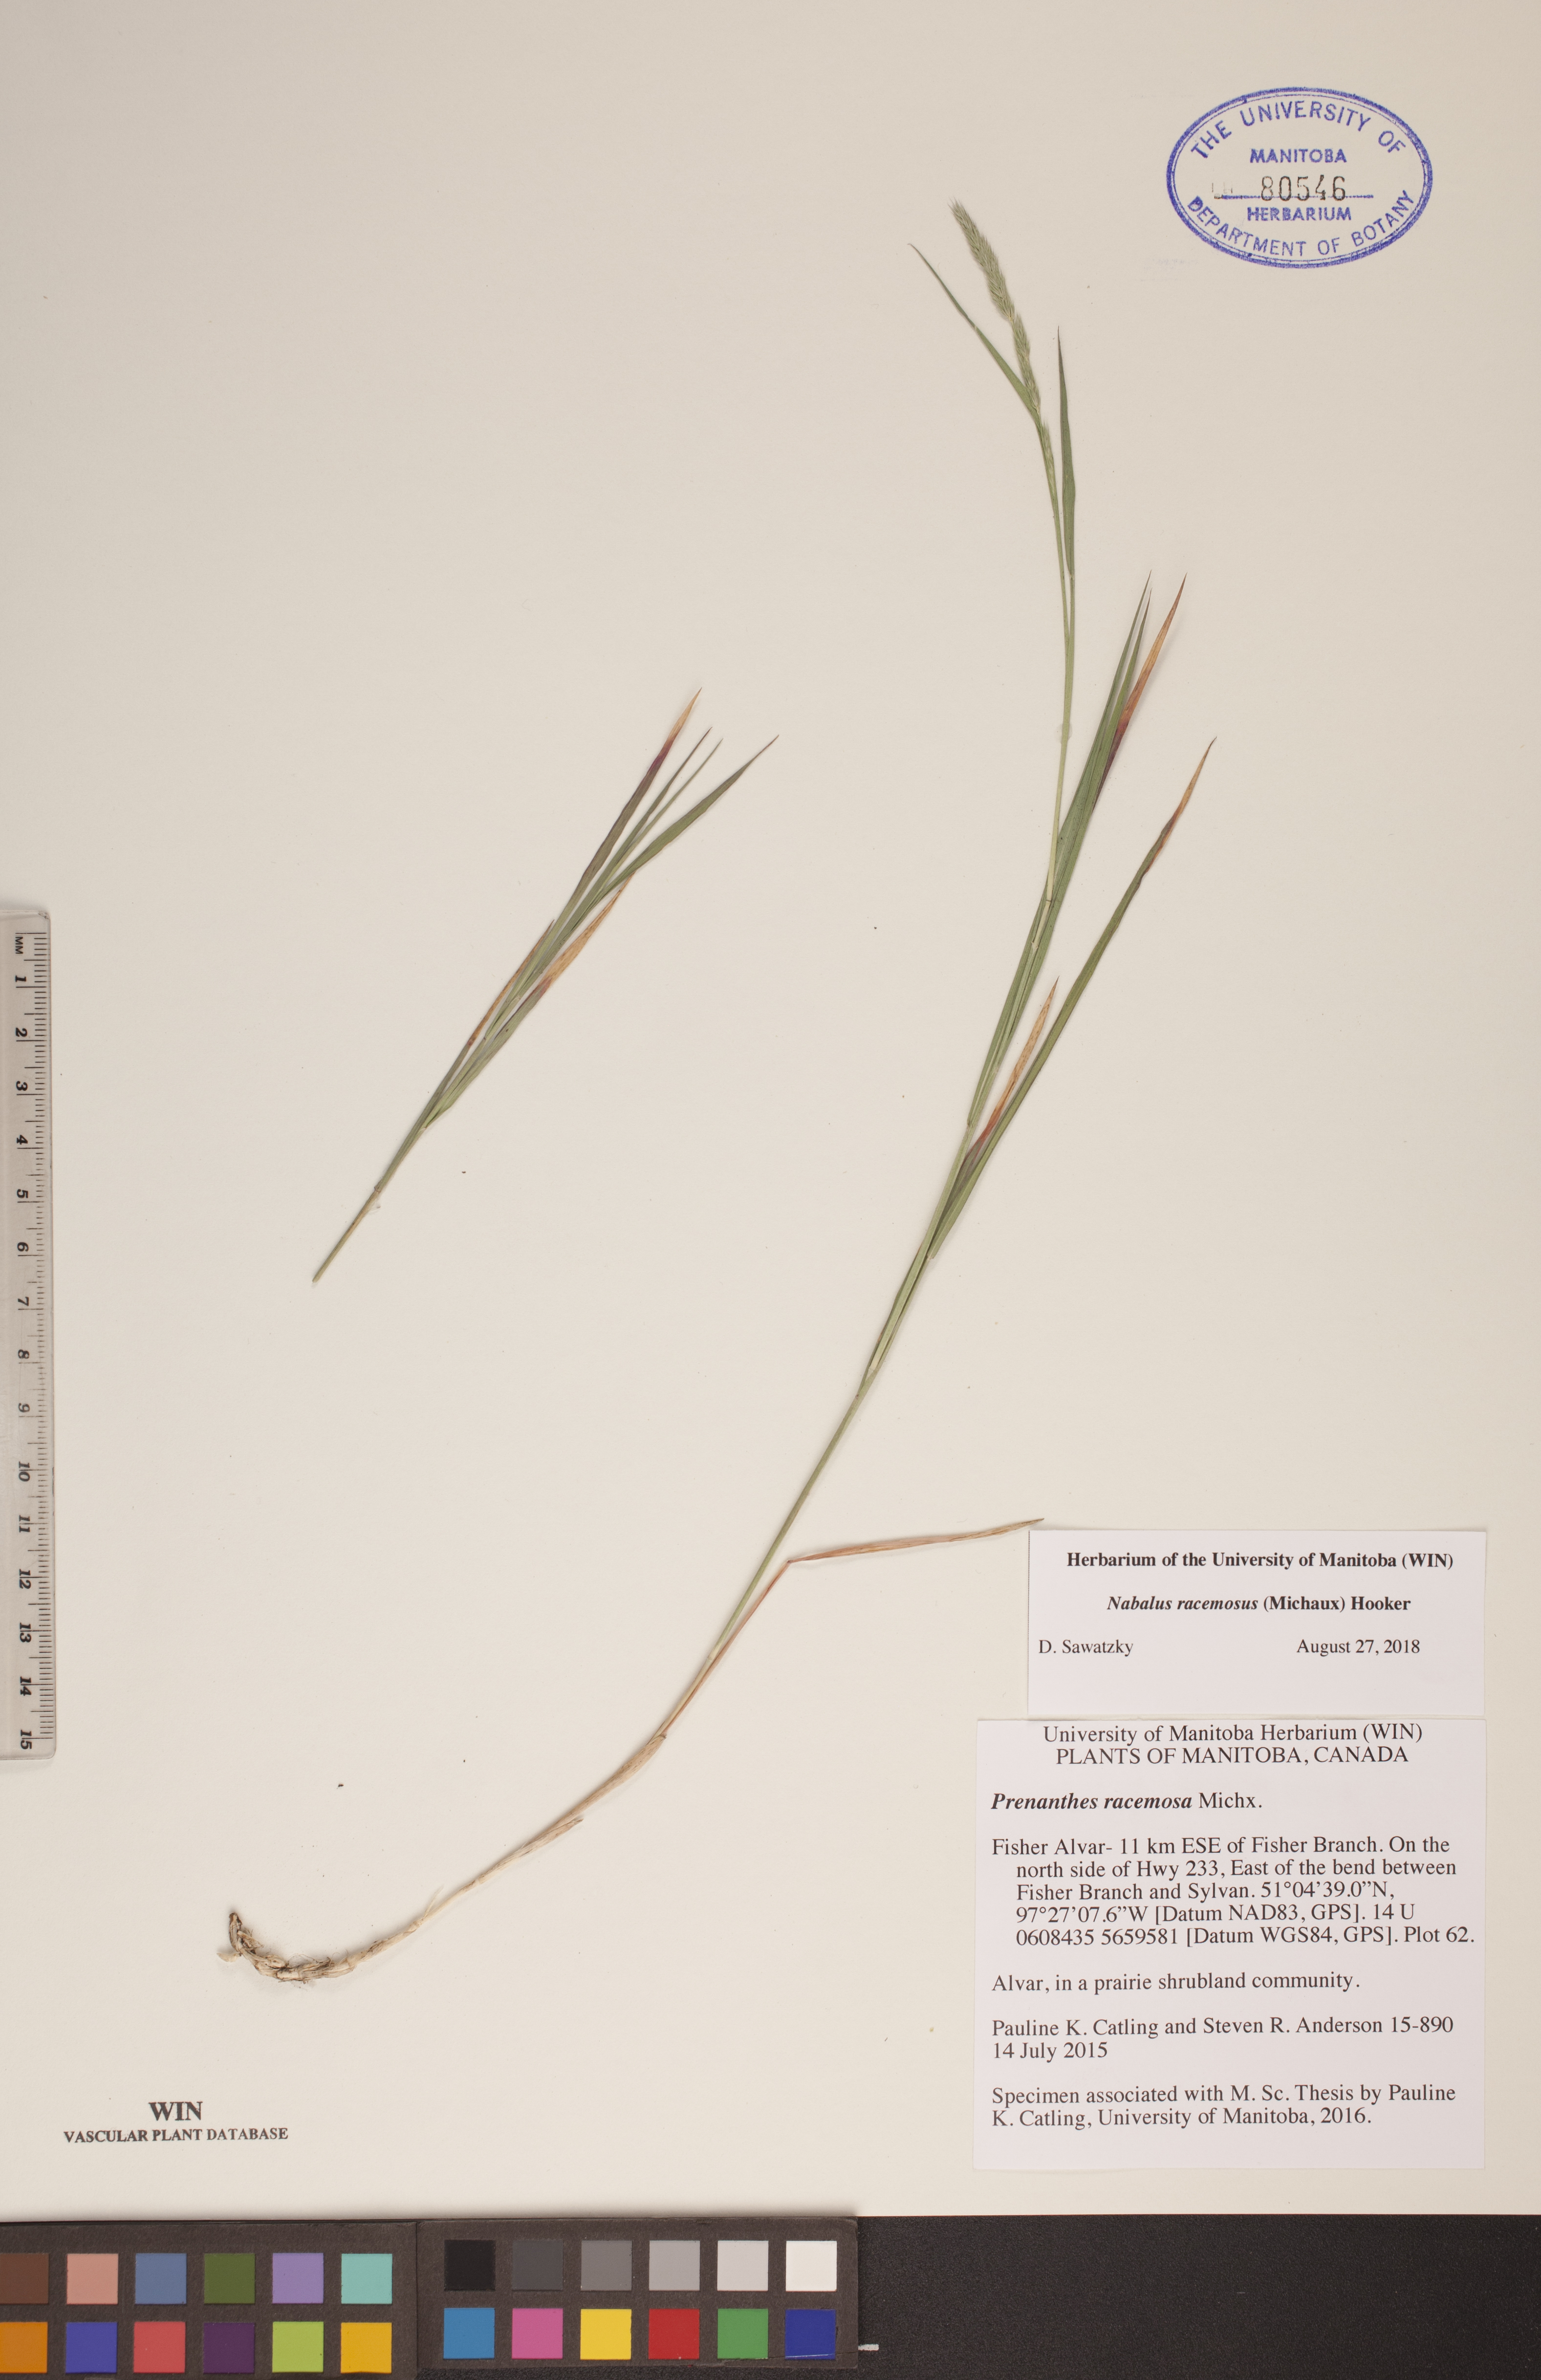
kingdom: Plantae
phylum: Tracheophyta
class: Magnoliopsida
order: Asterales
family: Asteraceae
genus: Nabalus
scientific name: Nabalus racemosus
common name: Glaucous white lettuce
